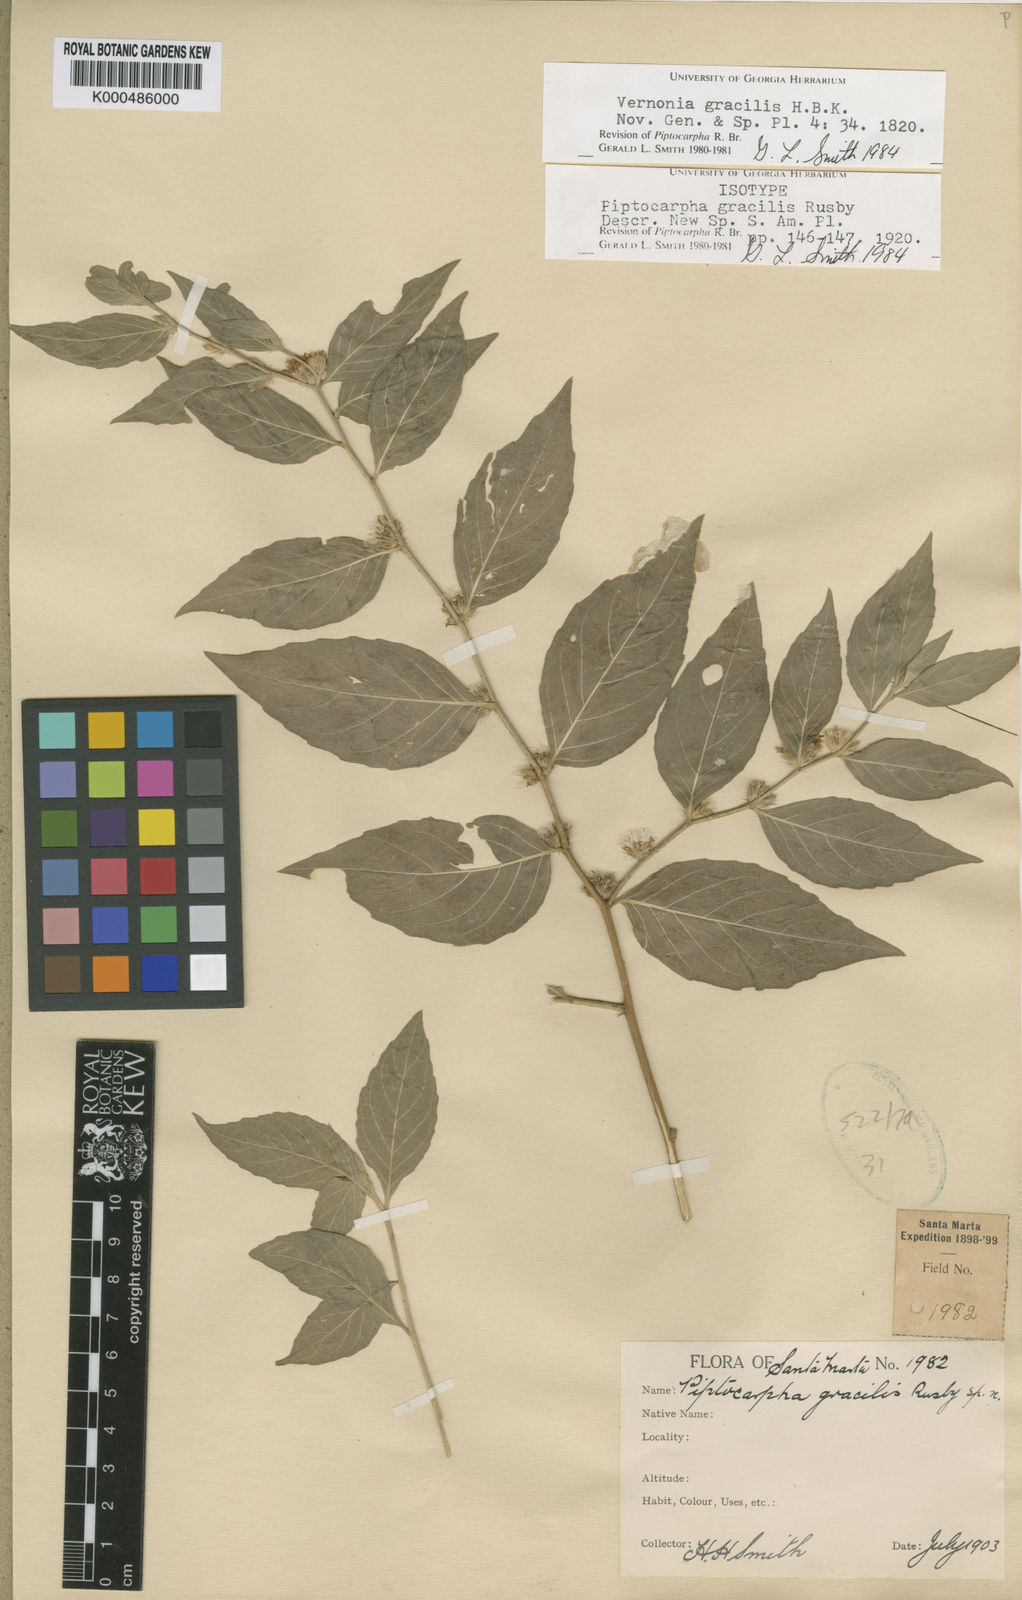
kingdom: Plantae
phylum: Tracheophyta
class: Magnoliopsida
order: Asterales
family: Asteraceae
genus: Lepidaploa
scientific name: Lepidaploa gracilis
